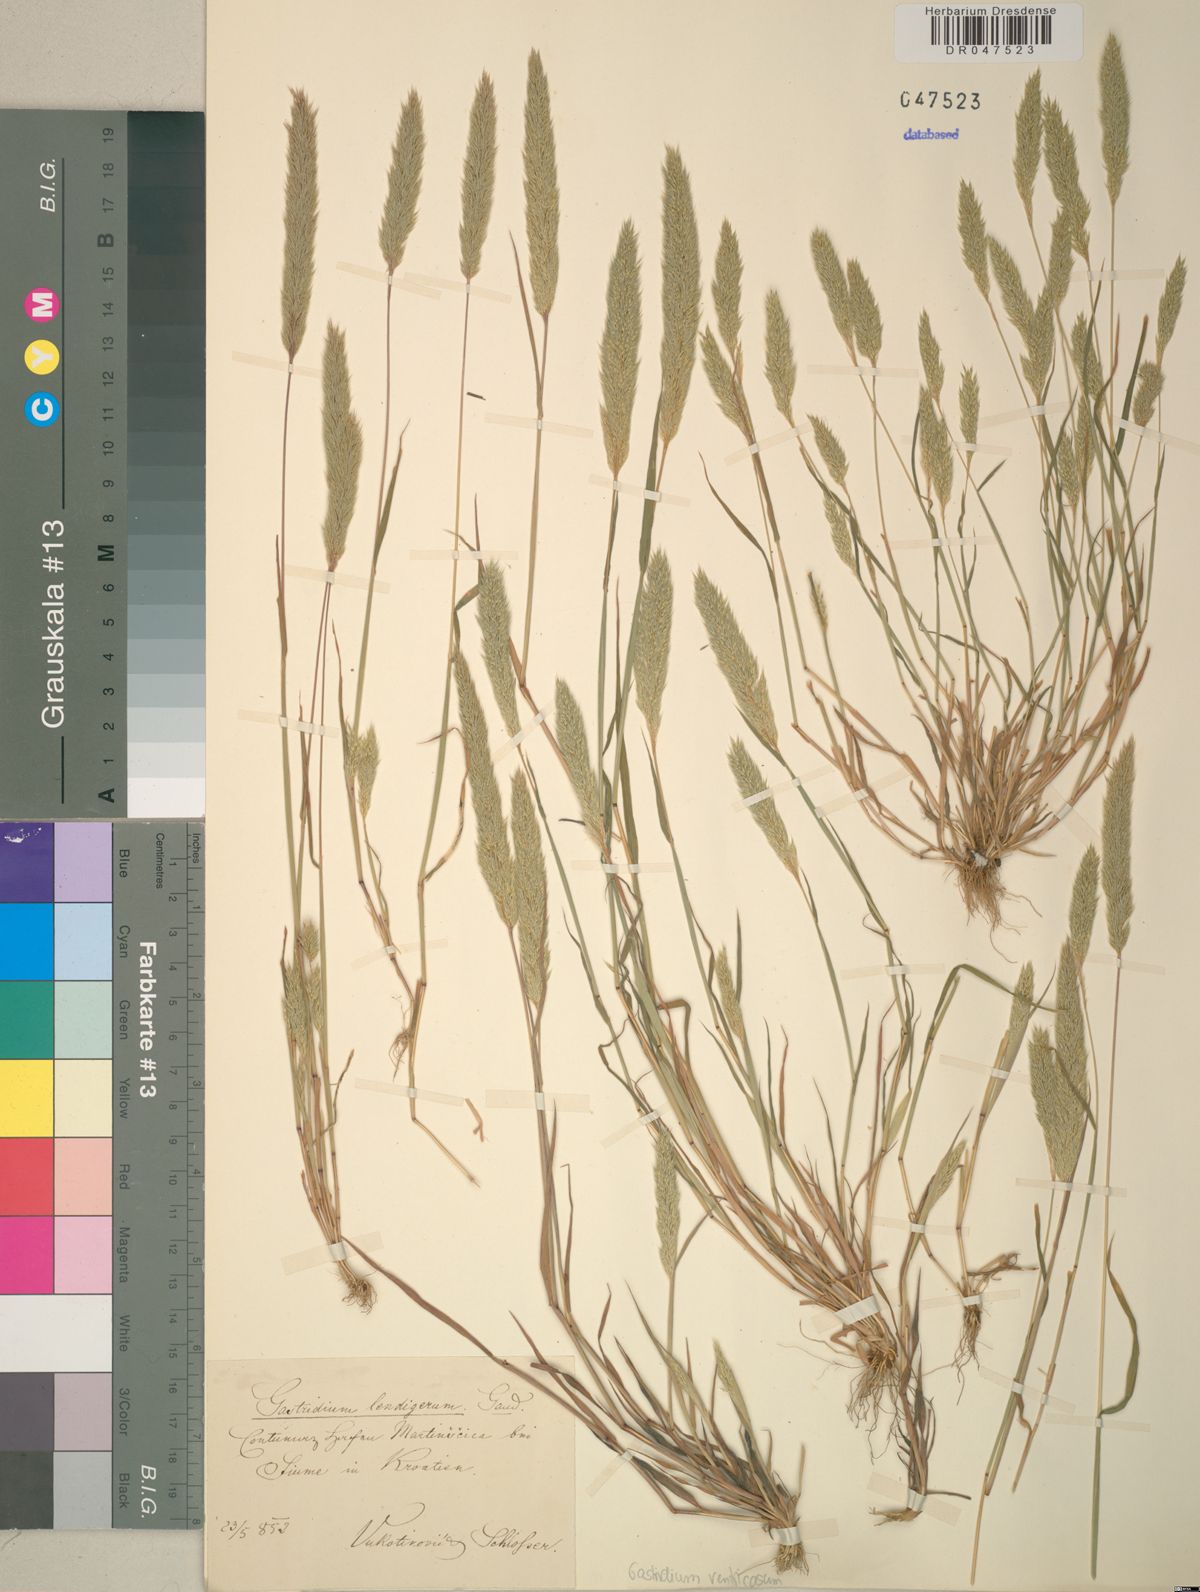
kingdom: Plantae
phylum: Tracheophyta
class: Liliopsida
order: Poales
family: Poaceae
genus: Gastridium
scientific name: Gastridium ventricosum
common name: Nit-grass
